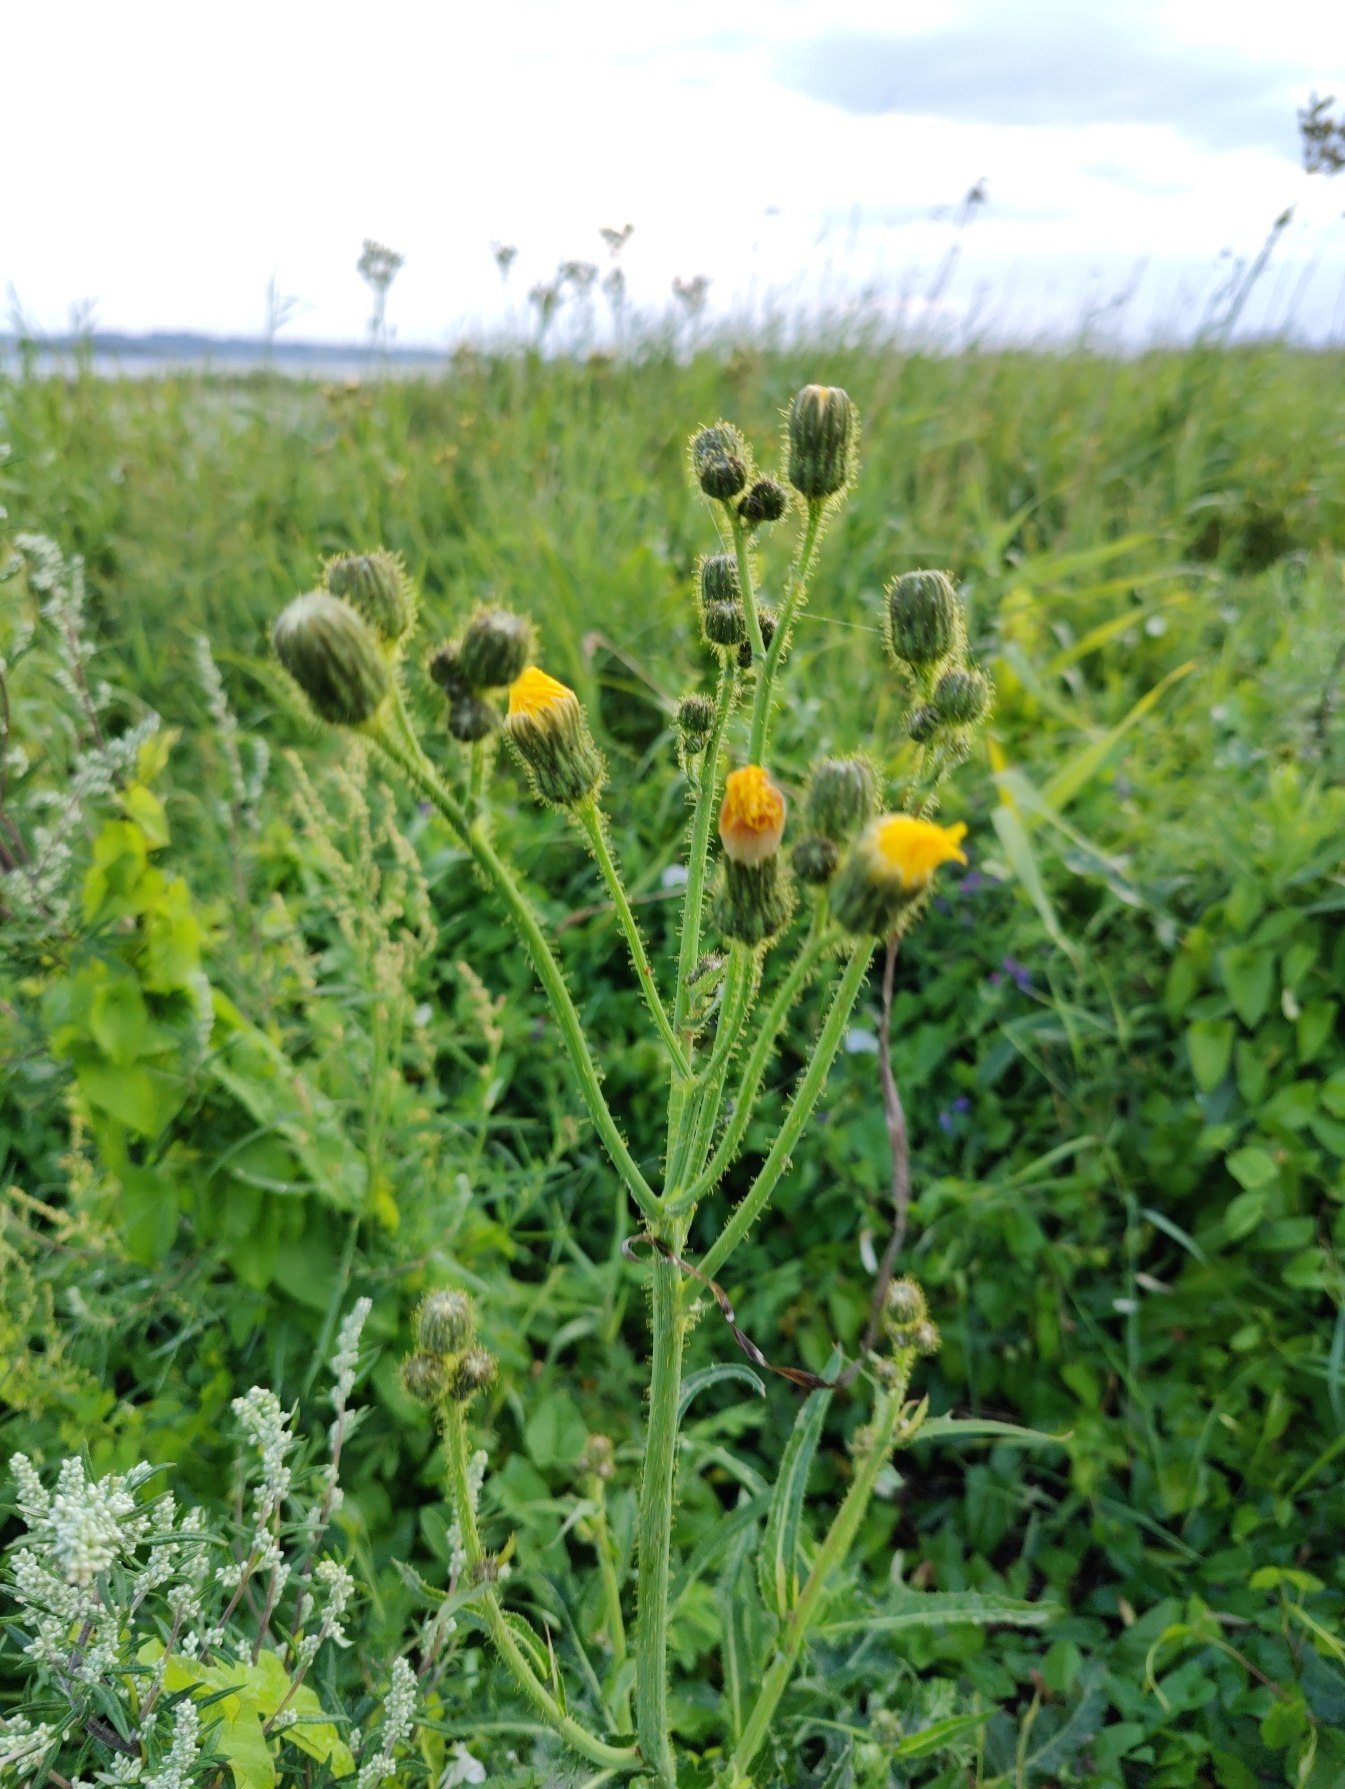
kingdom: Plantae
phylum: Tracheophyta
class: Magnoliopsida
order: Asterales
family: Asteraceae
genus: Sonchus
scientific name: Sonchus arvensis
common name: Ager-svinemælk
